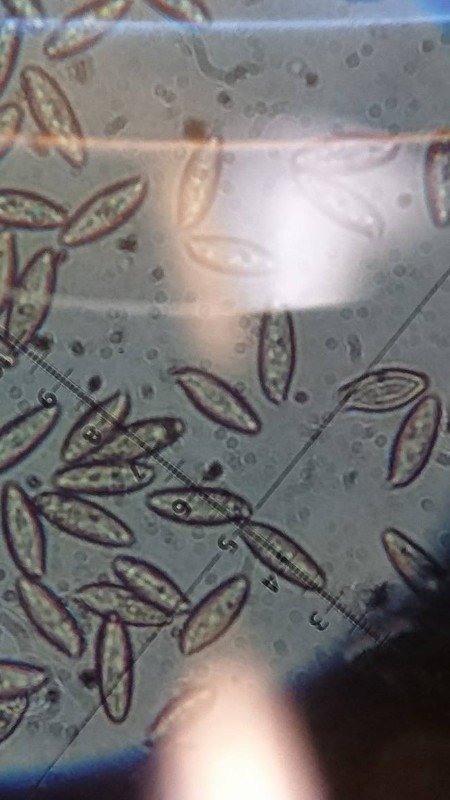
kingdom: Fungi
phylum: Basidiomycota
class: Agaricomycetes
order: Boletales
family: Boletaceae
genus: Leccinum
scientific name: Leccinum
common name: skælrørhat
